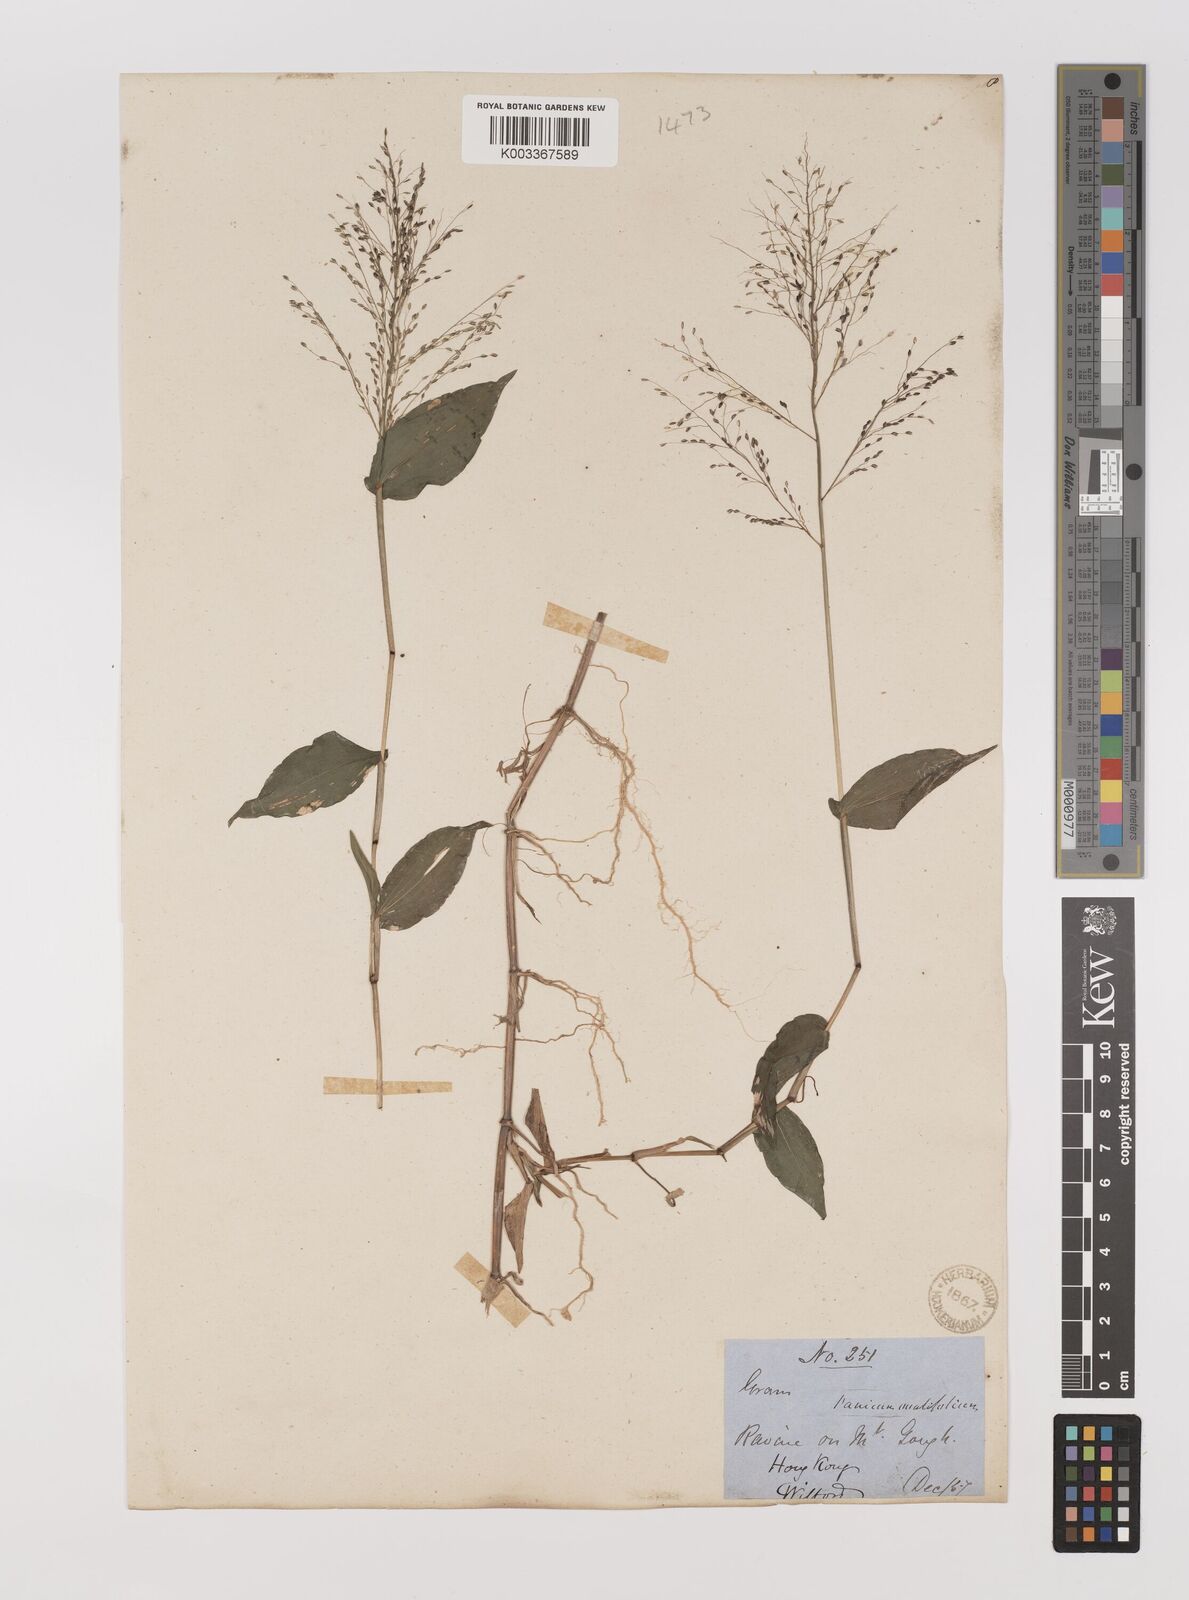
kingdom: Plantae
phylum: Tracheophyta
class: Liliopsida
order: Poales
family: Poaceae
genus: Panicum
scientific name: Panicum brevifolium
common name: Shortleaf panic grass
